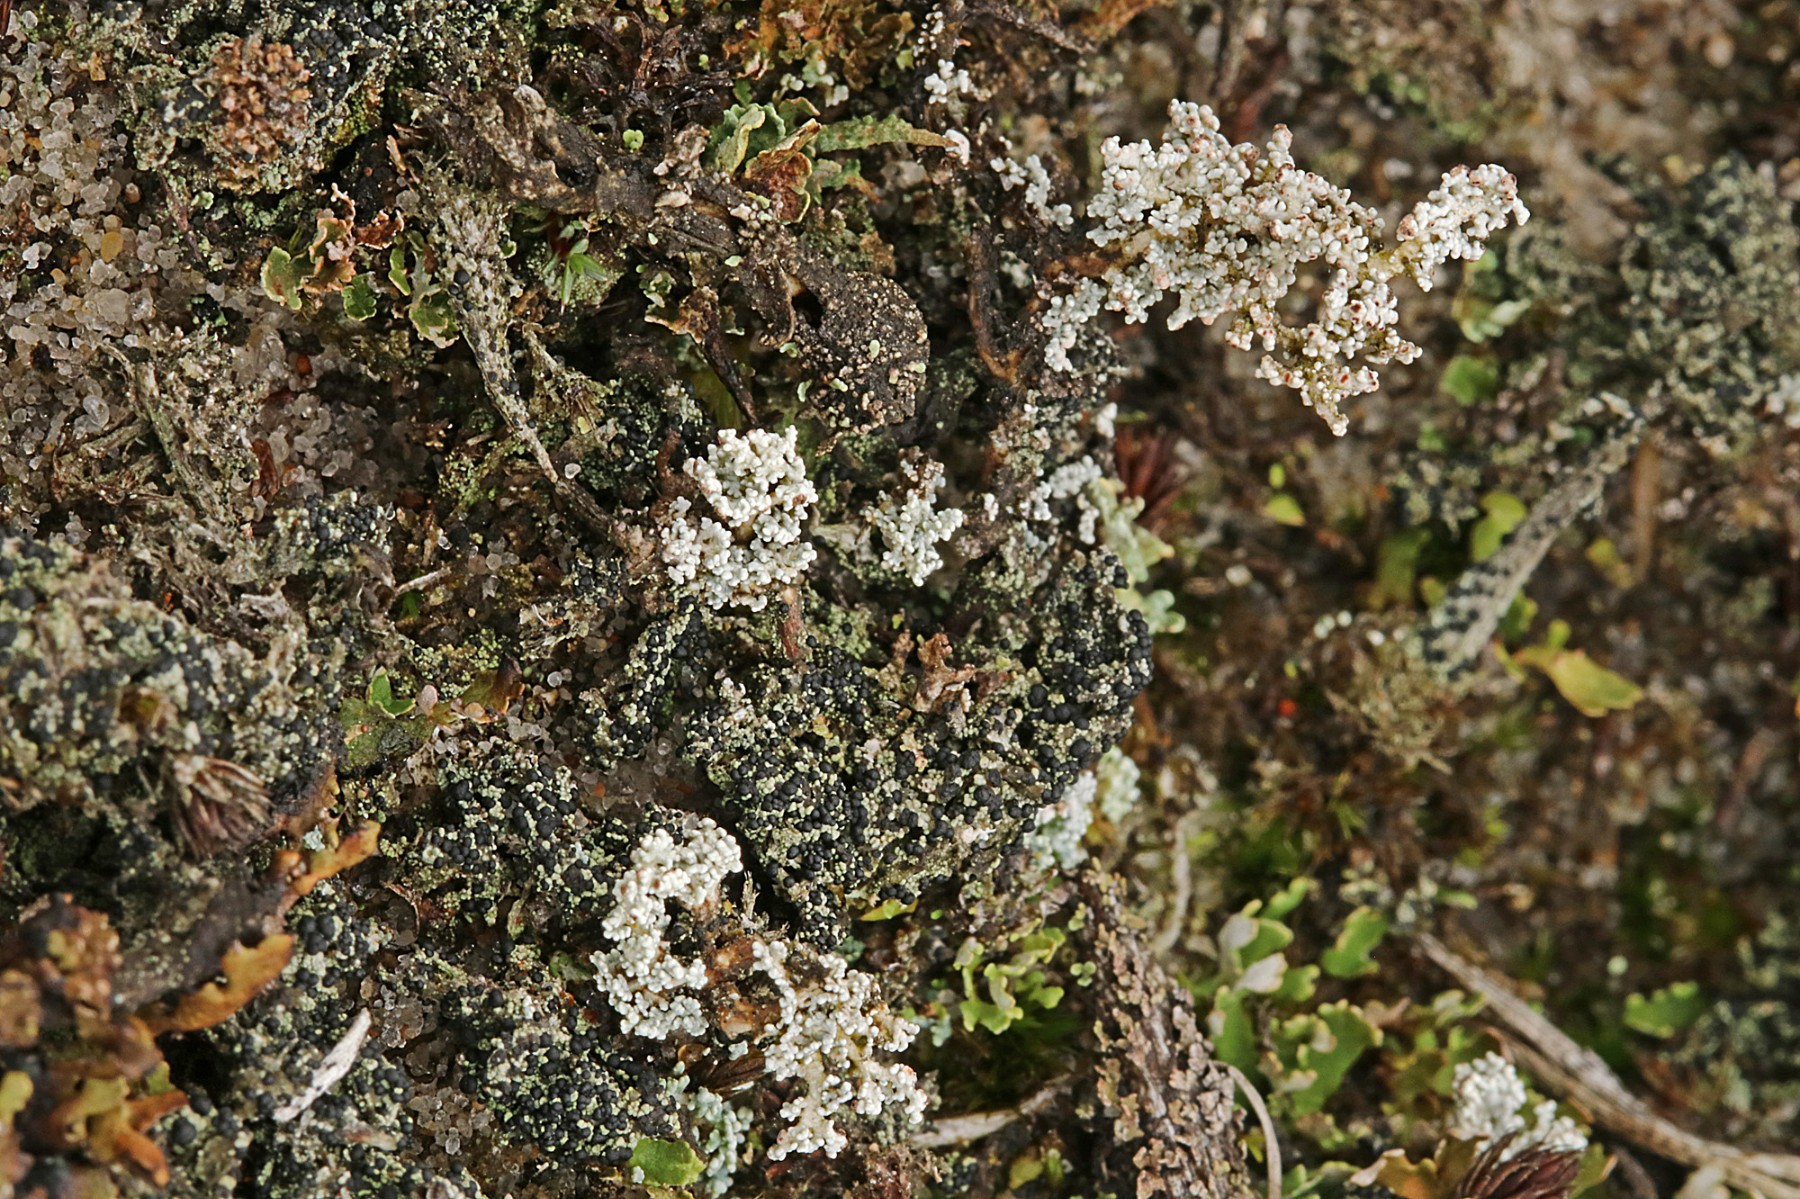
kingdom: Fungi
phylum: Ascomycota
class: Lecanoromycetes
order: Lecanorales
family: Stereocaulaceae
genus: Stereocaulon
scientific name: Stereocaulon saxatile
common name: klit-korallav
